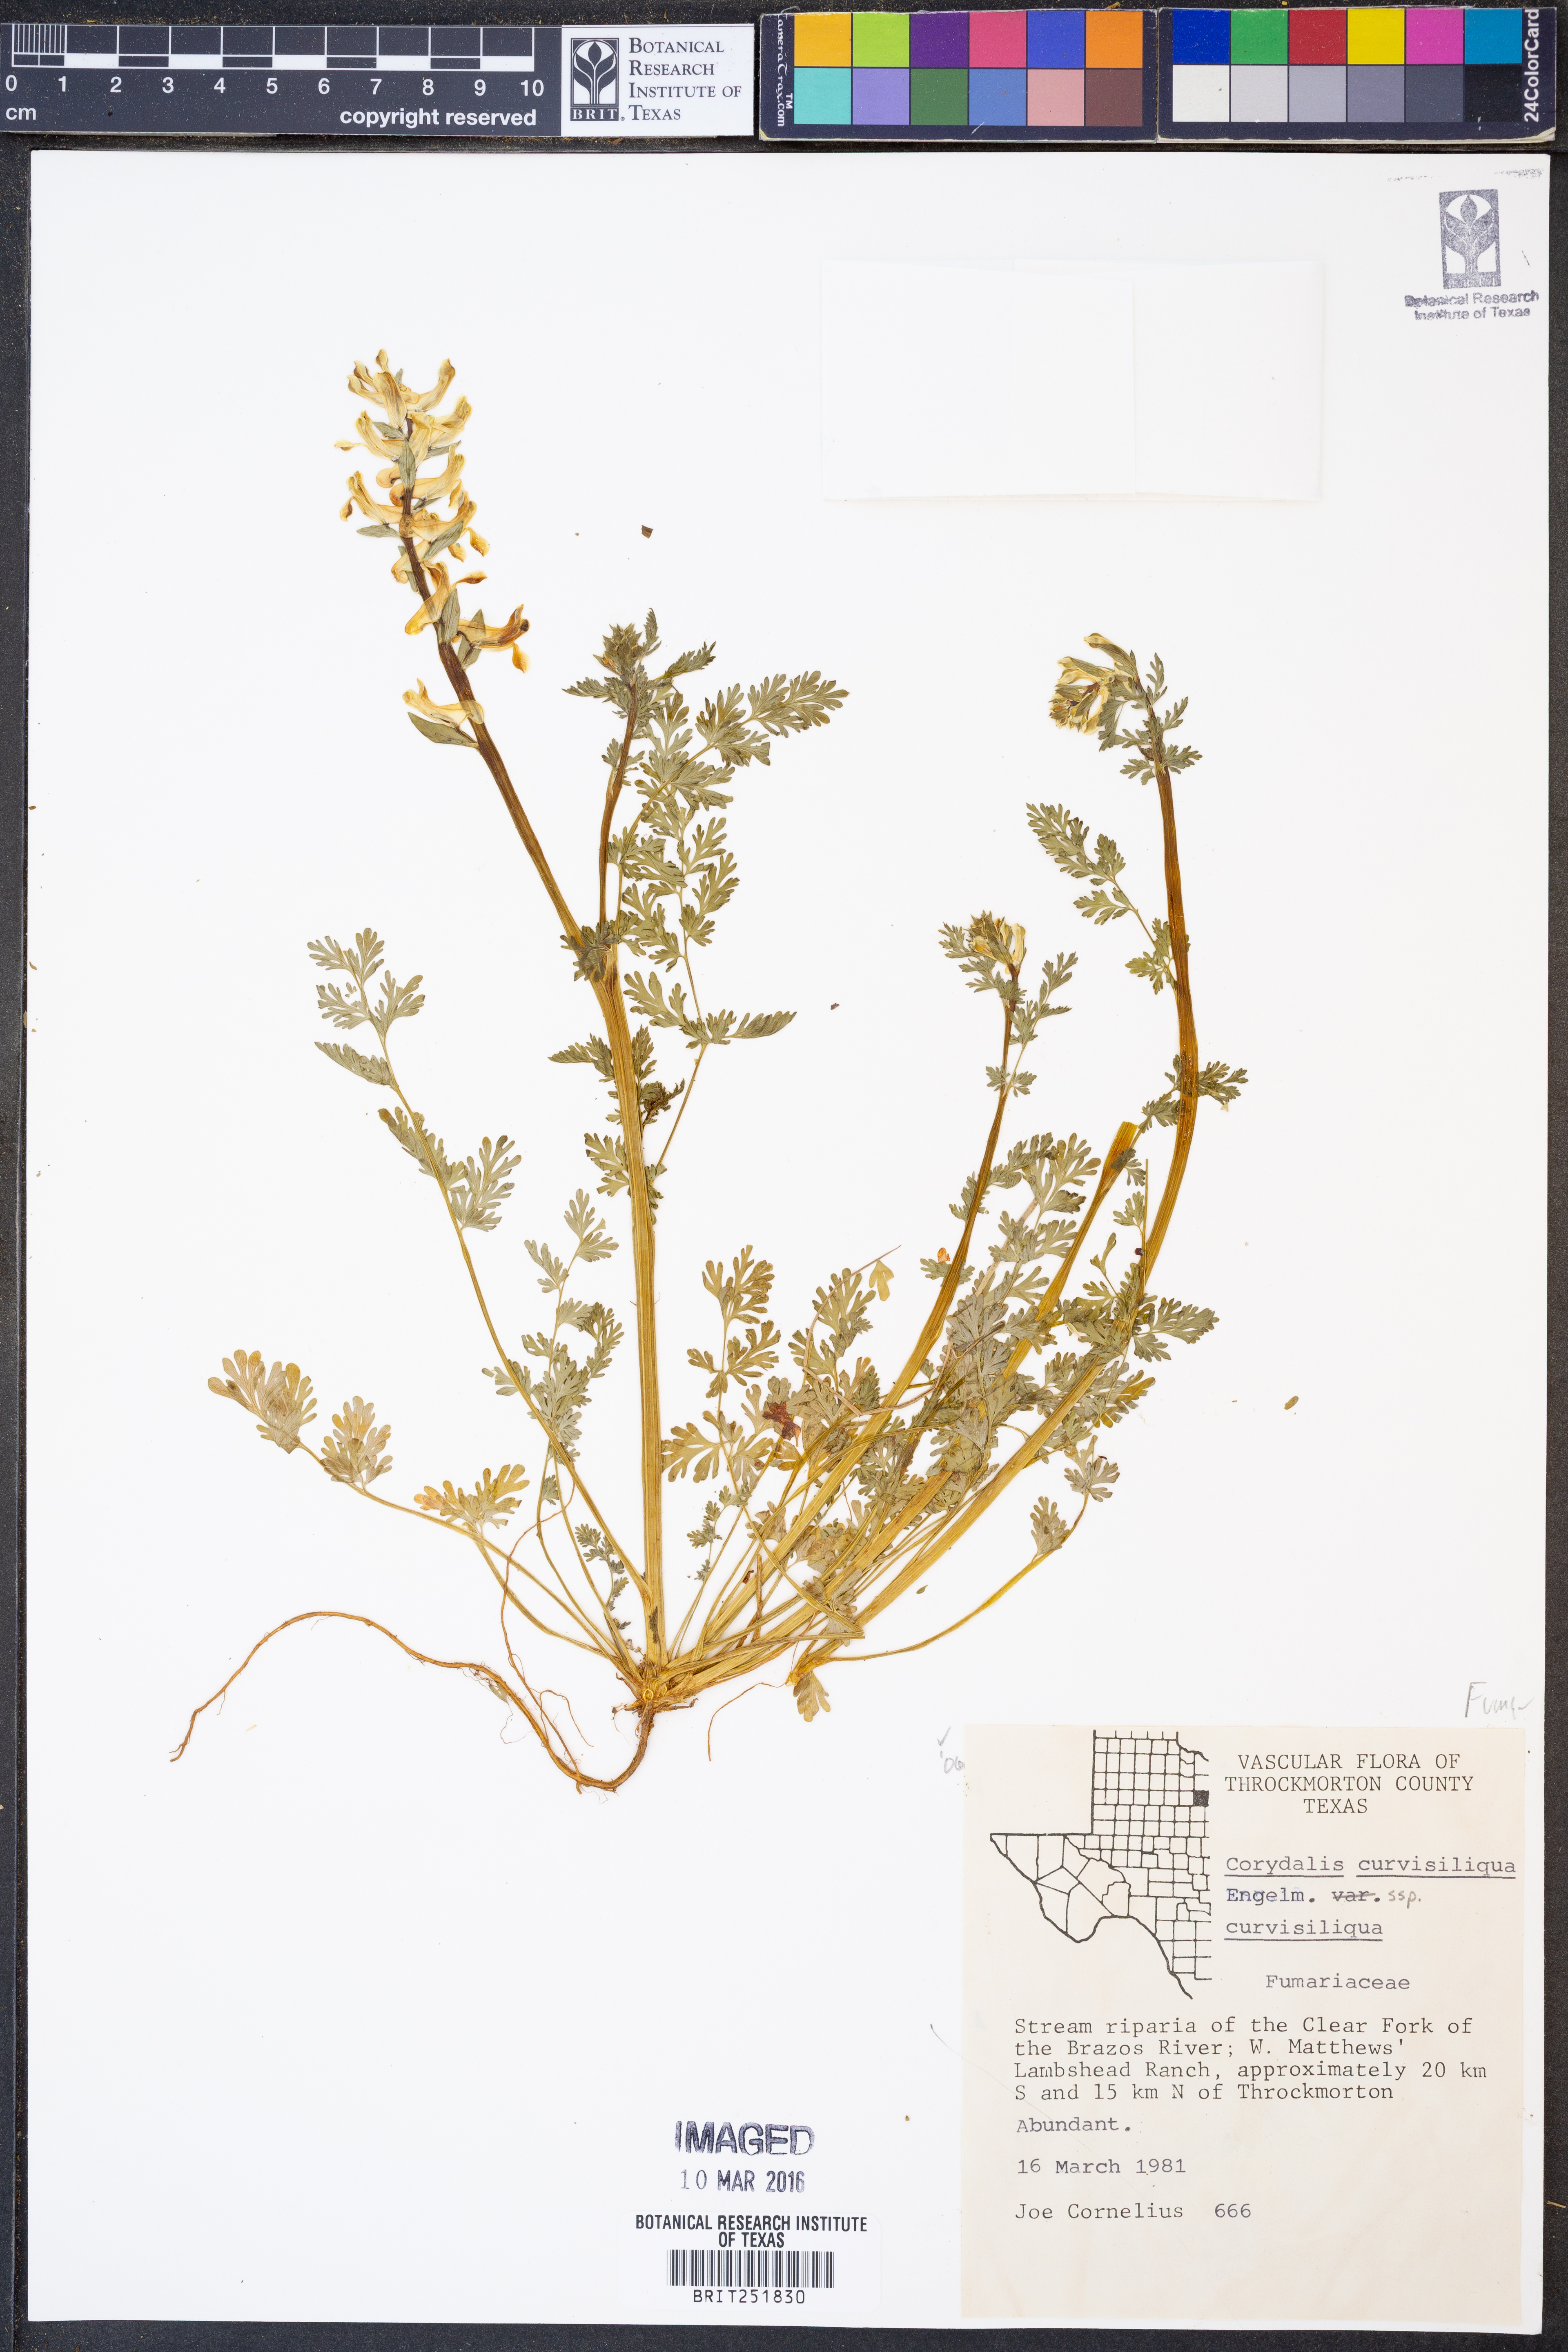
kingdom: Plantae
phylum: Tracheophyta
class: Magnoliopsida
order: Ranunculales
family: Papaveraceae
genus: Corydalis
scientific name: Corydalis curvisiliqua
